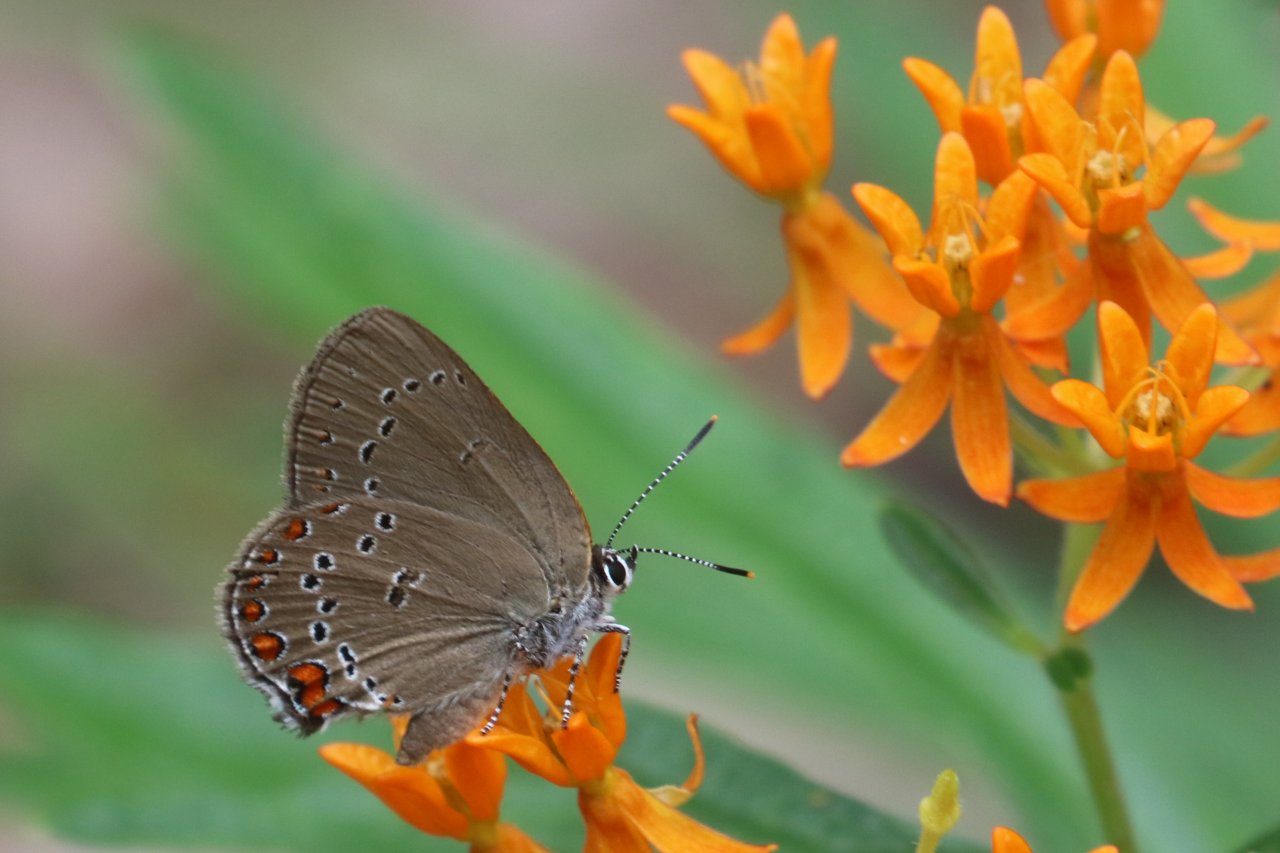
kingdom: Animalia
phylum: Arthropoda
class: Insecta
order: Lepidoptera
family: Lycaenidae
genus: Harkenclenus
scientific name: Harkenclenus titus
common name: Coral Hairstreak
